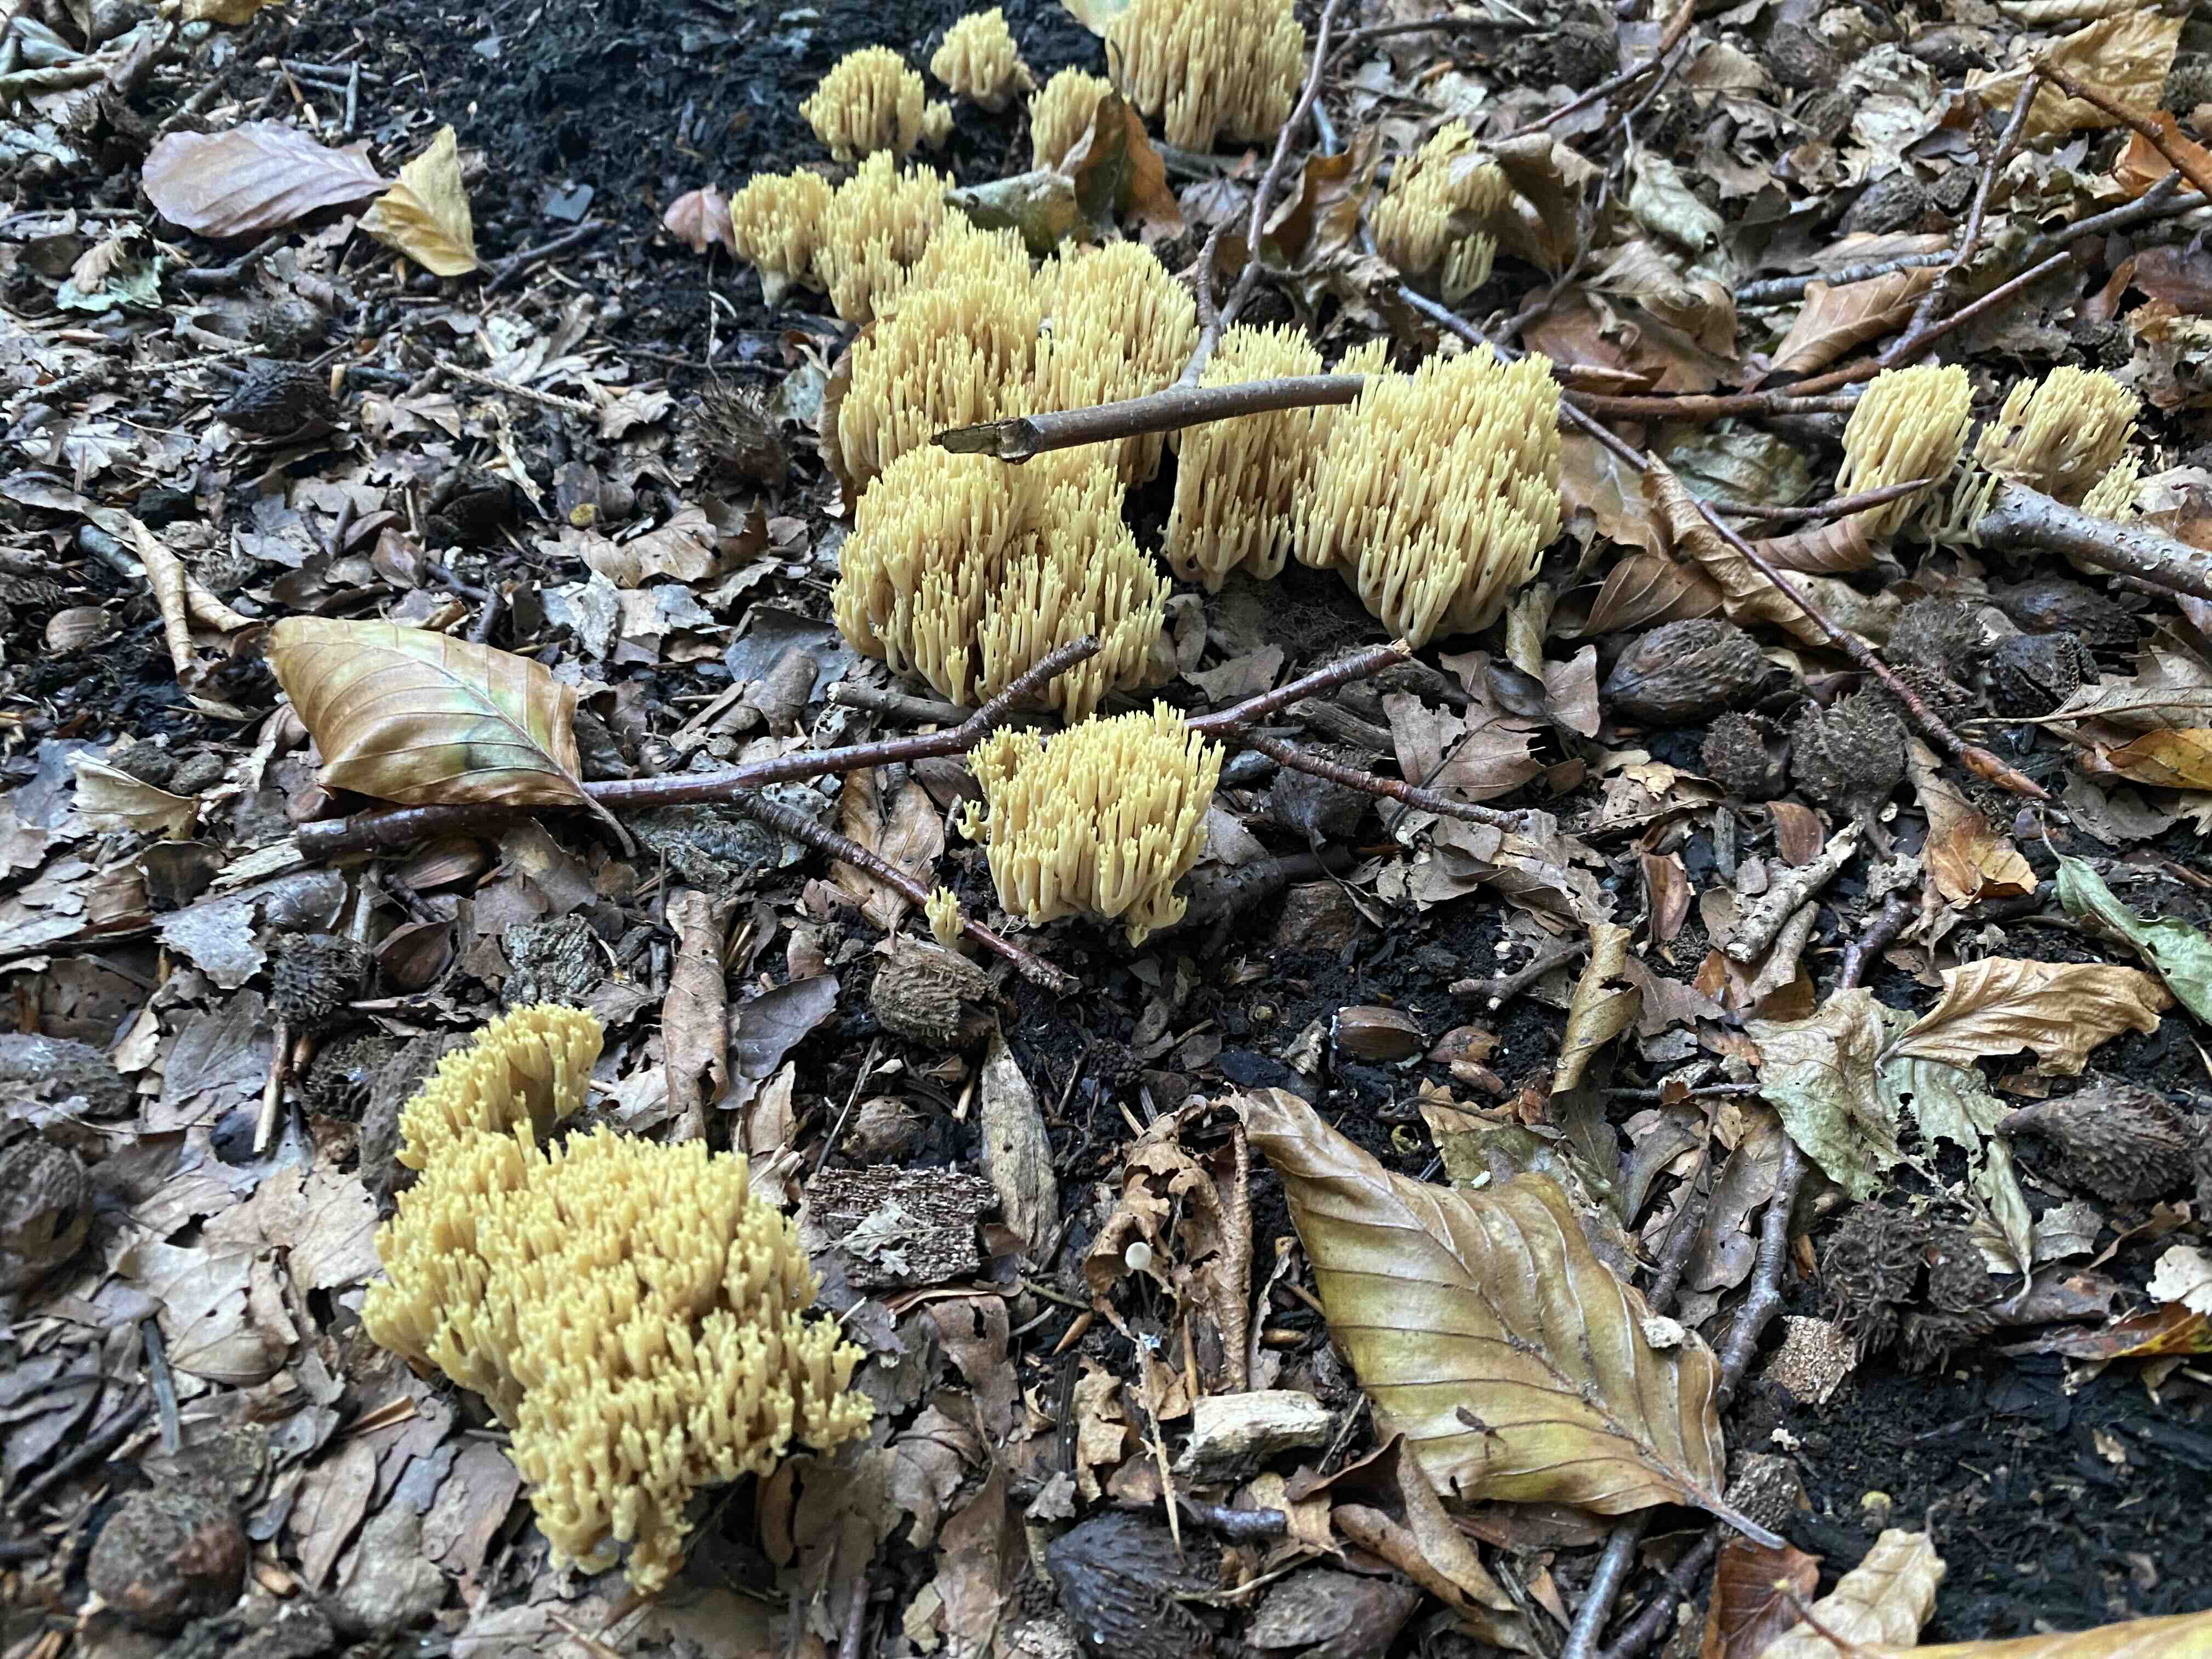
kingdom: Fungi
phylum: Basidiomycota
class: Agaricomycetes
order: Gomphales
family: Gomphaceae
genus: Ramaria
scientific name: Ramaria stricta
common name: rank koralsvamp
